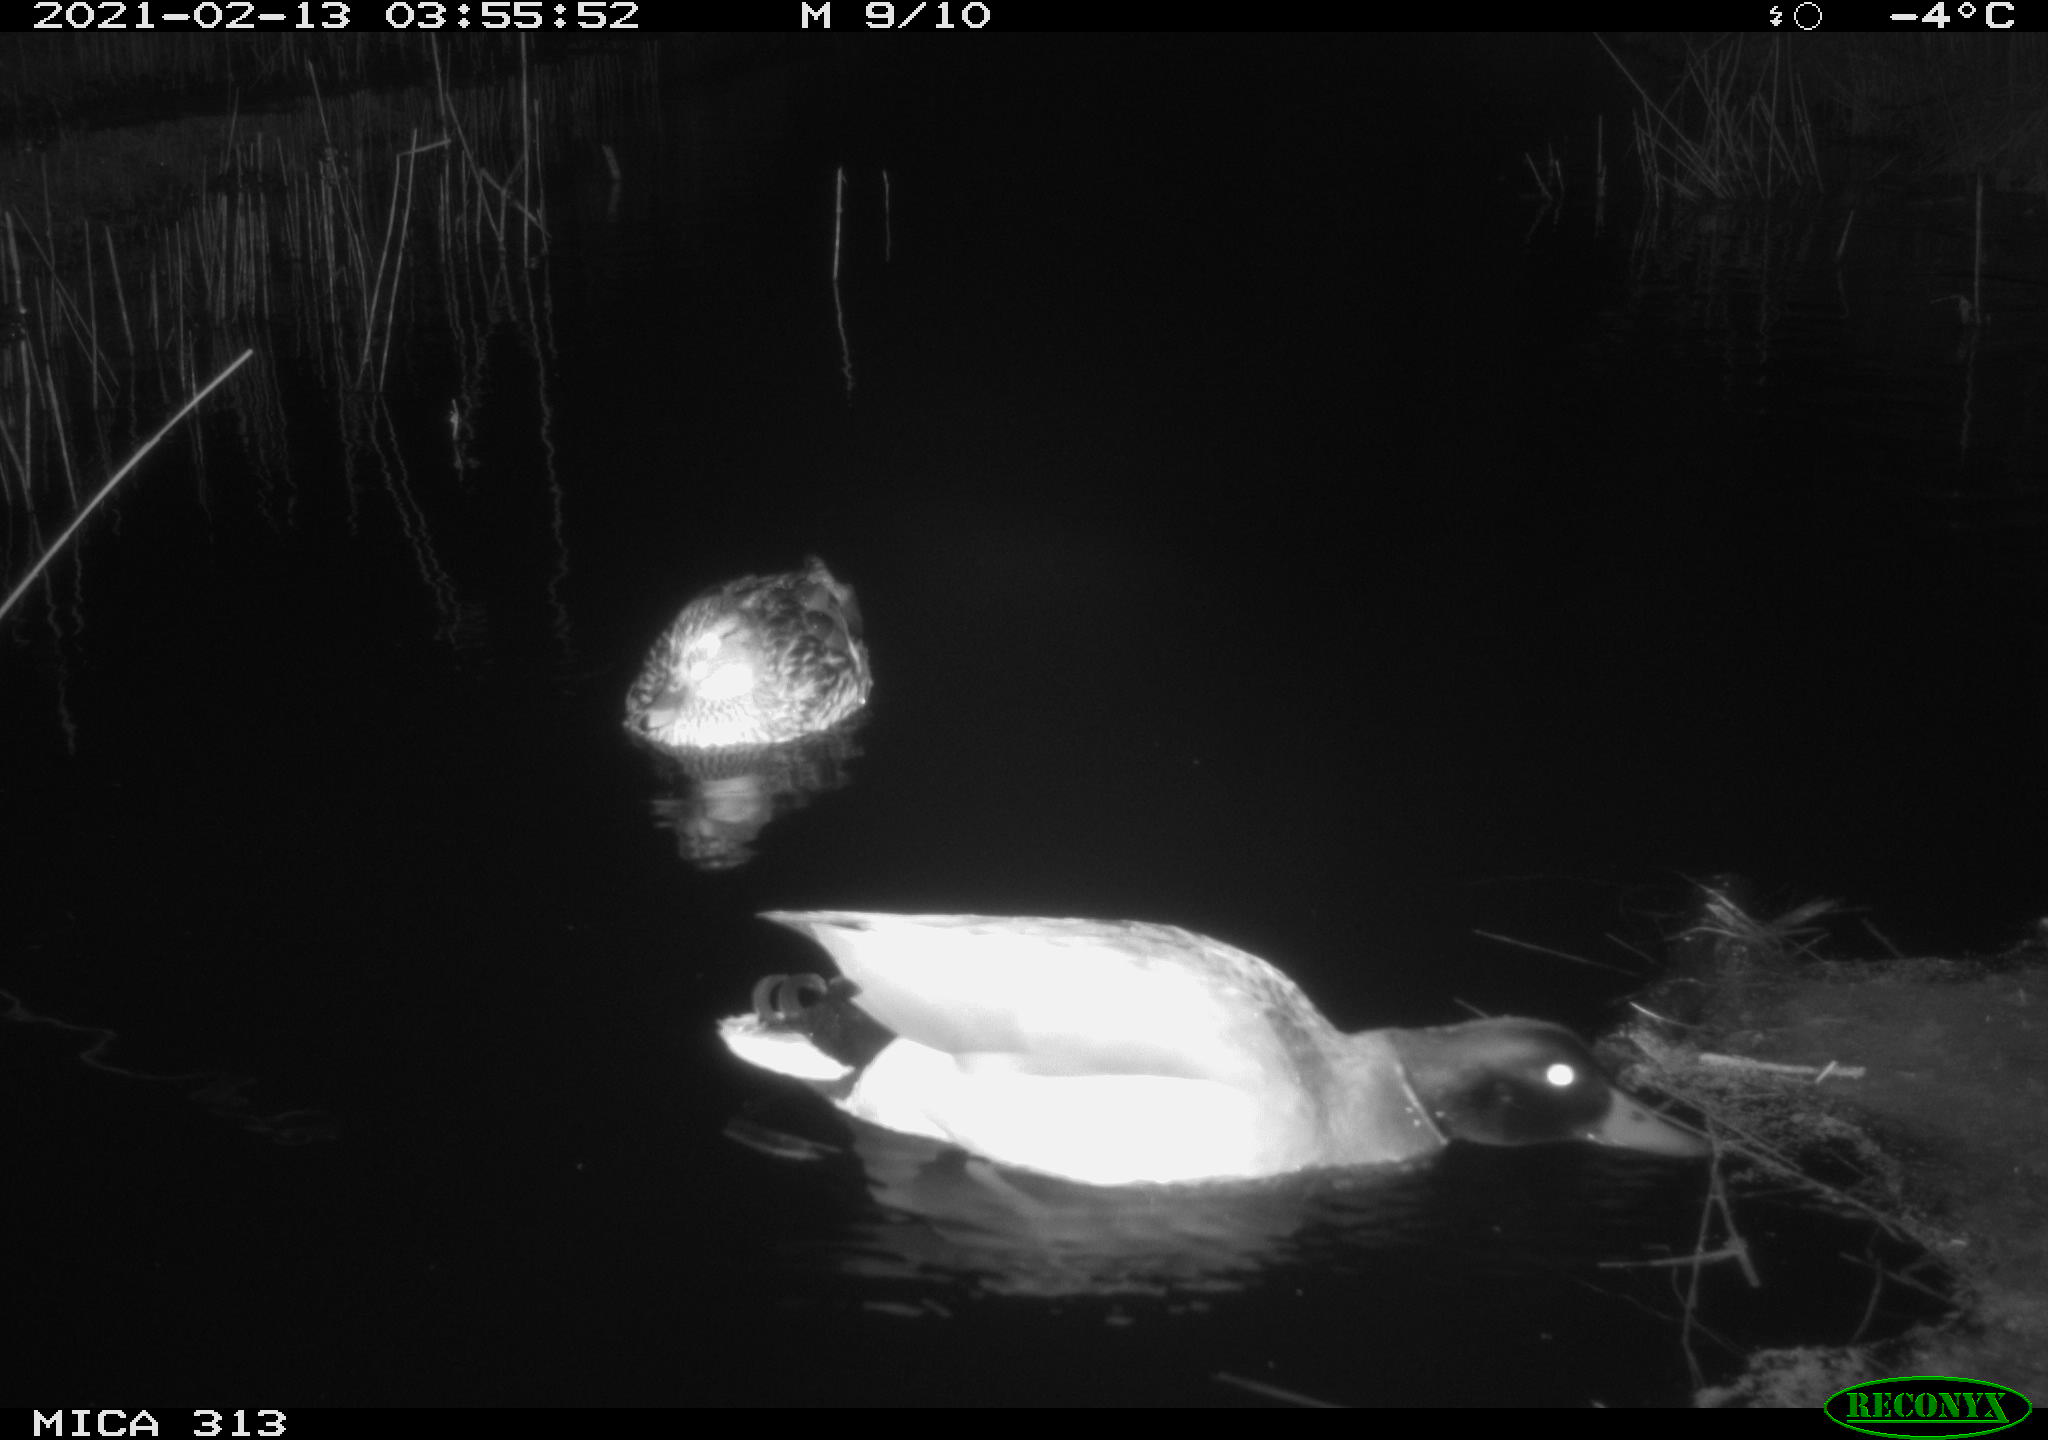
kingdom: Animalia
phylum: Chordata
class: Aves
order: Anseriformes
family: Anatidae
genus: Anas
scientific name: Anas
